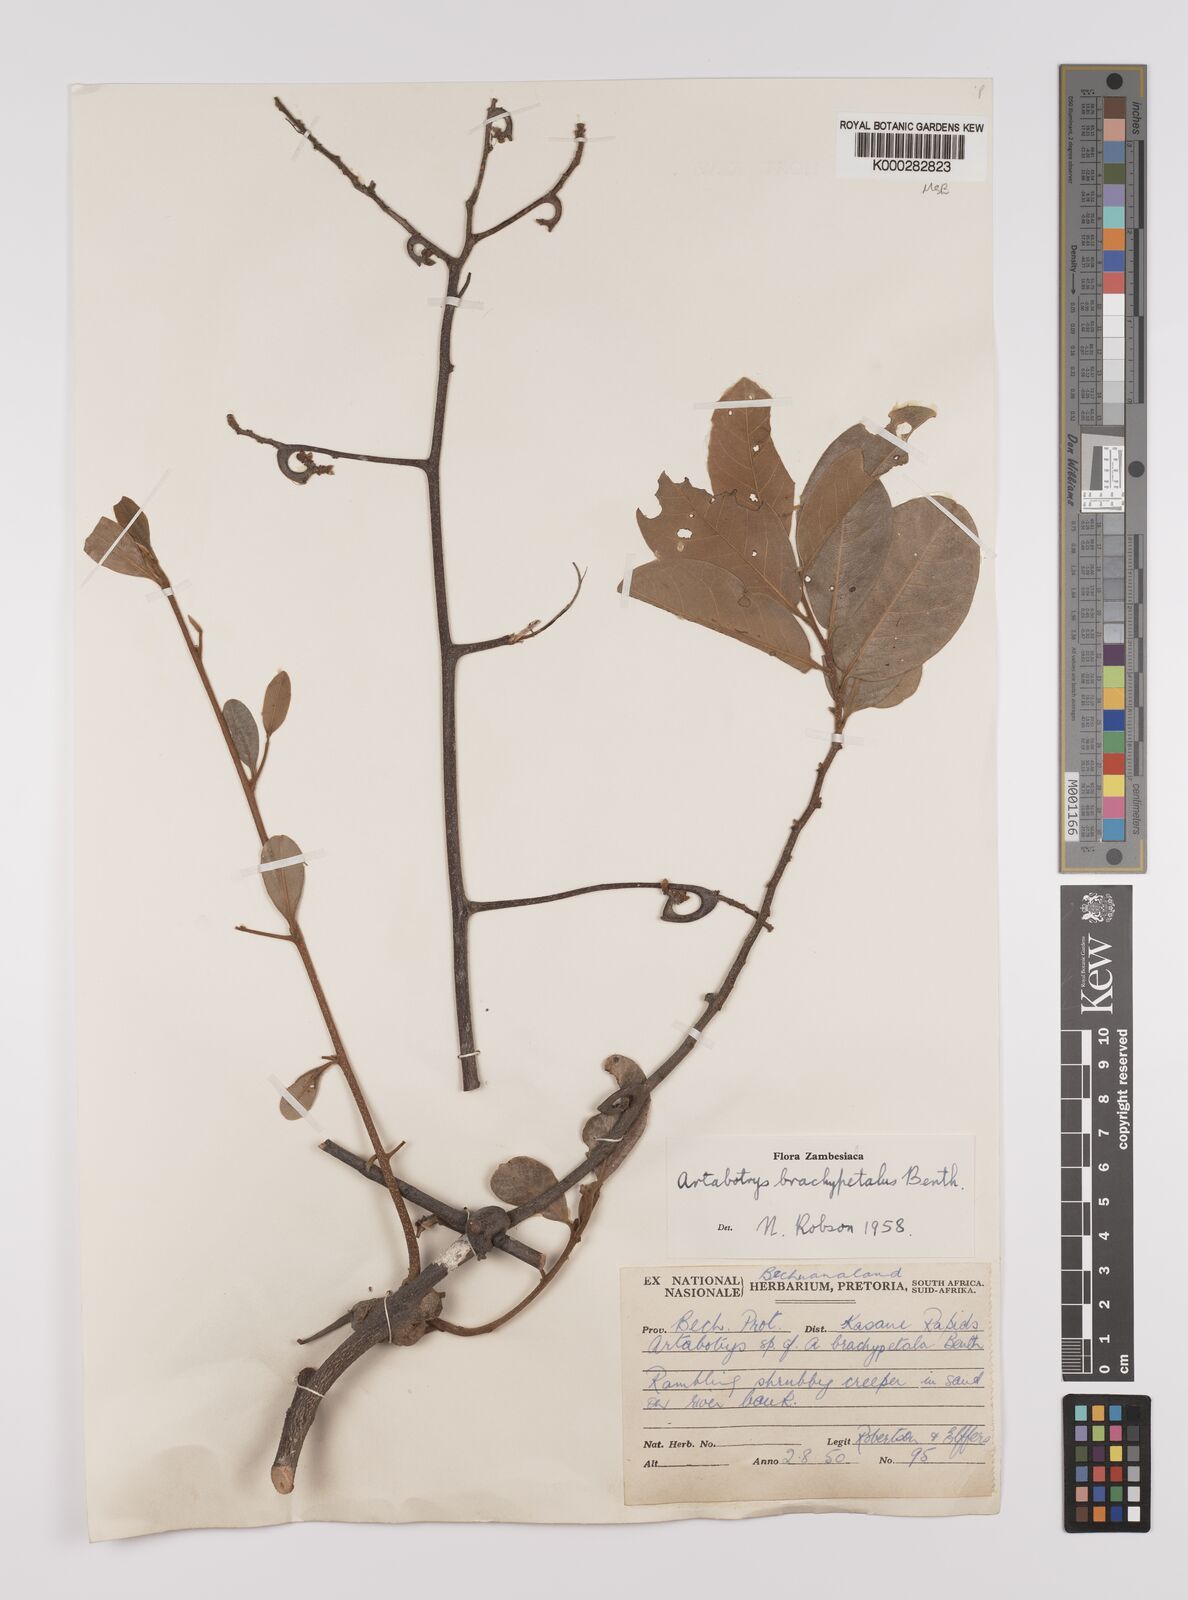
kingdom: Plantae
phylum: Tracheophyta
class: Magnoliopsida
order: Magnoliales
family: Annonaceae
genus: Artabotrys
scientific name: Artabotrys brachypetalus
